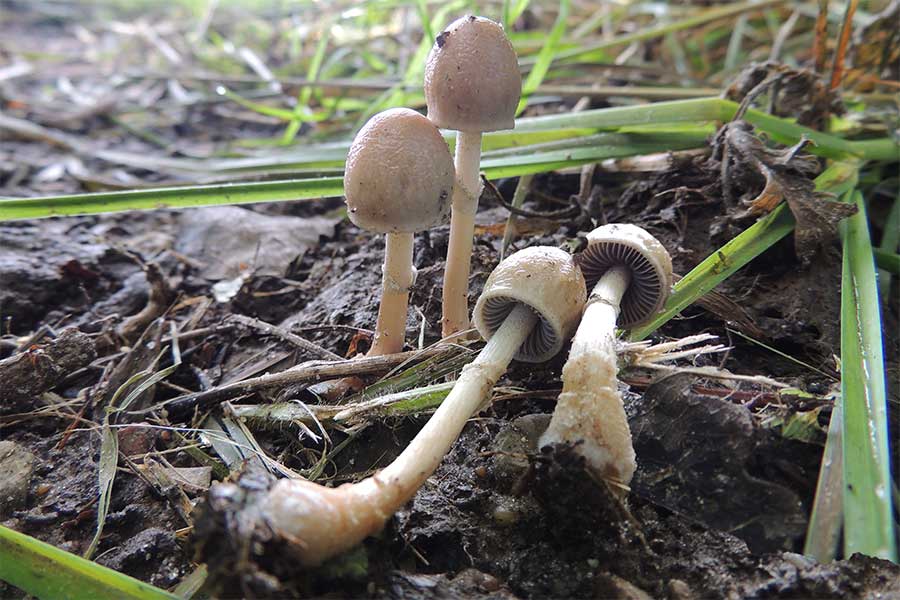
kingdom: Fungi
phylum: Basidiomycota
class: Agaricomycetes
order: Agaricales
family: Bolbitiaceae
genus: Panaeolus
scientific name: Panaeolus semiovatus
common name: ring-glanshat
